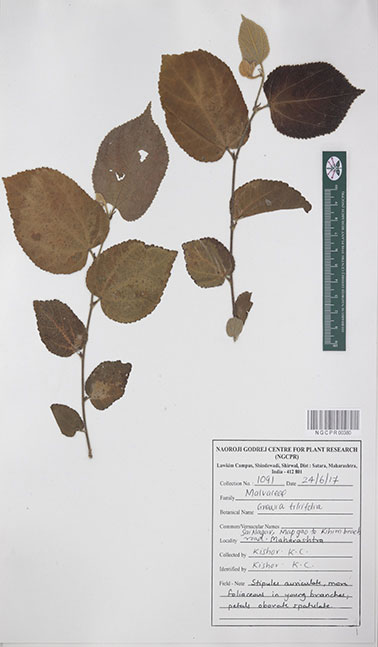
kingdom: Plantae
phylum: Tracheophyta
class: Magnoliopsida
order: Malvales
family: Malvaceae
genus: Grewia
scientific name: Grewia tiliifolia
